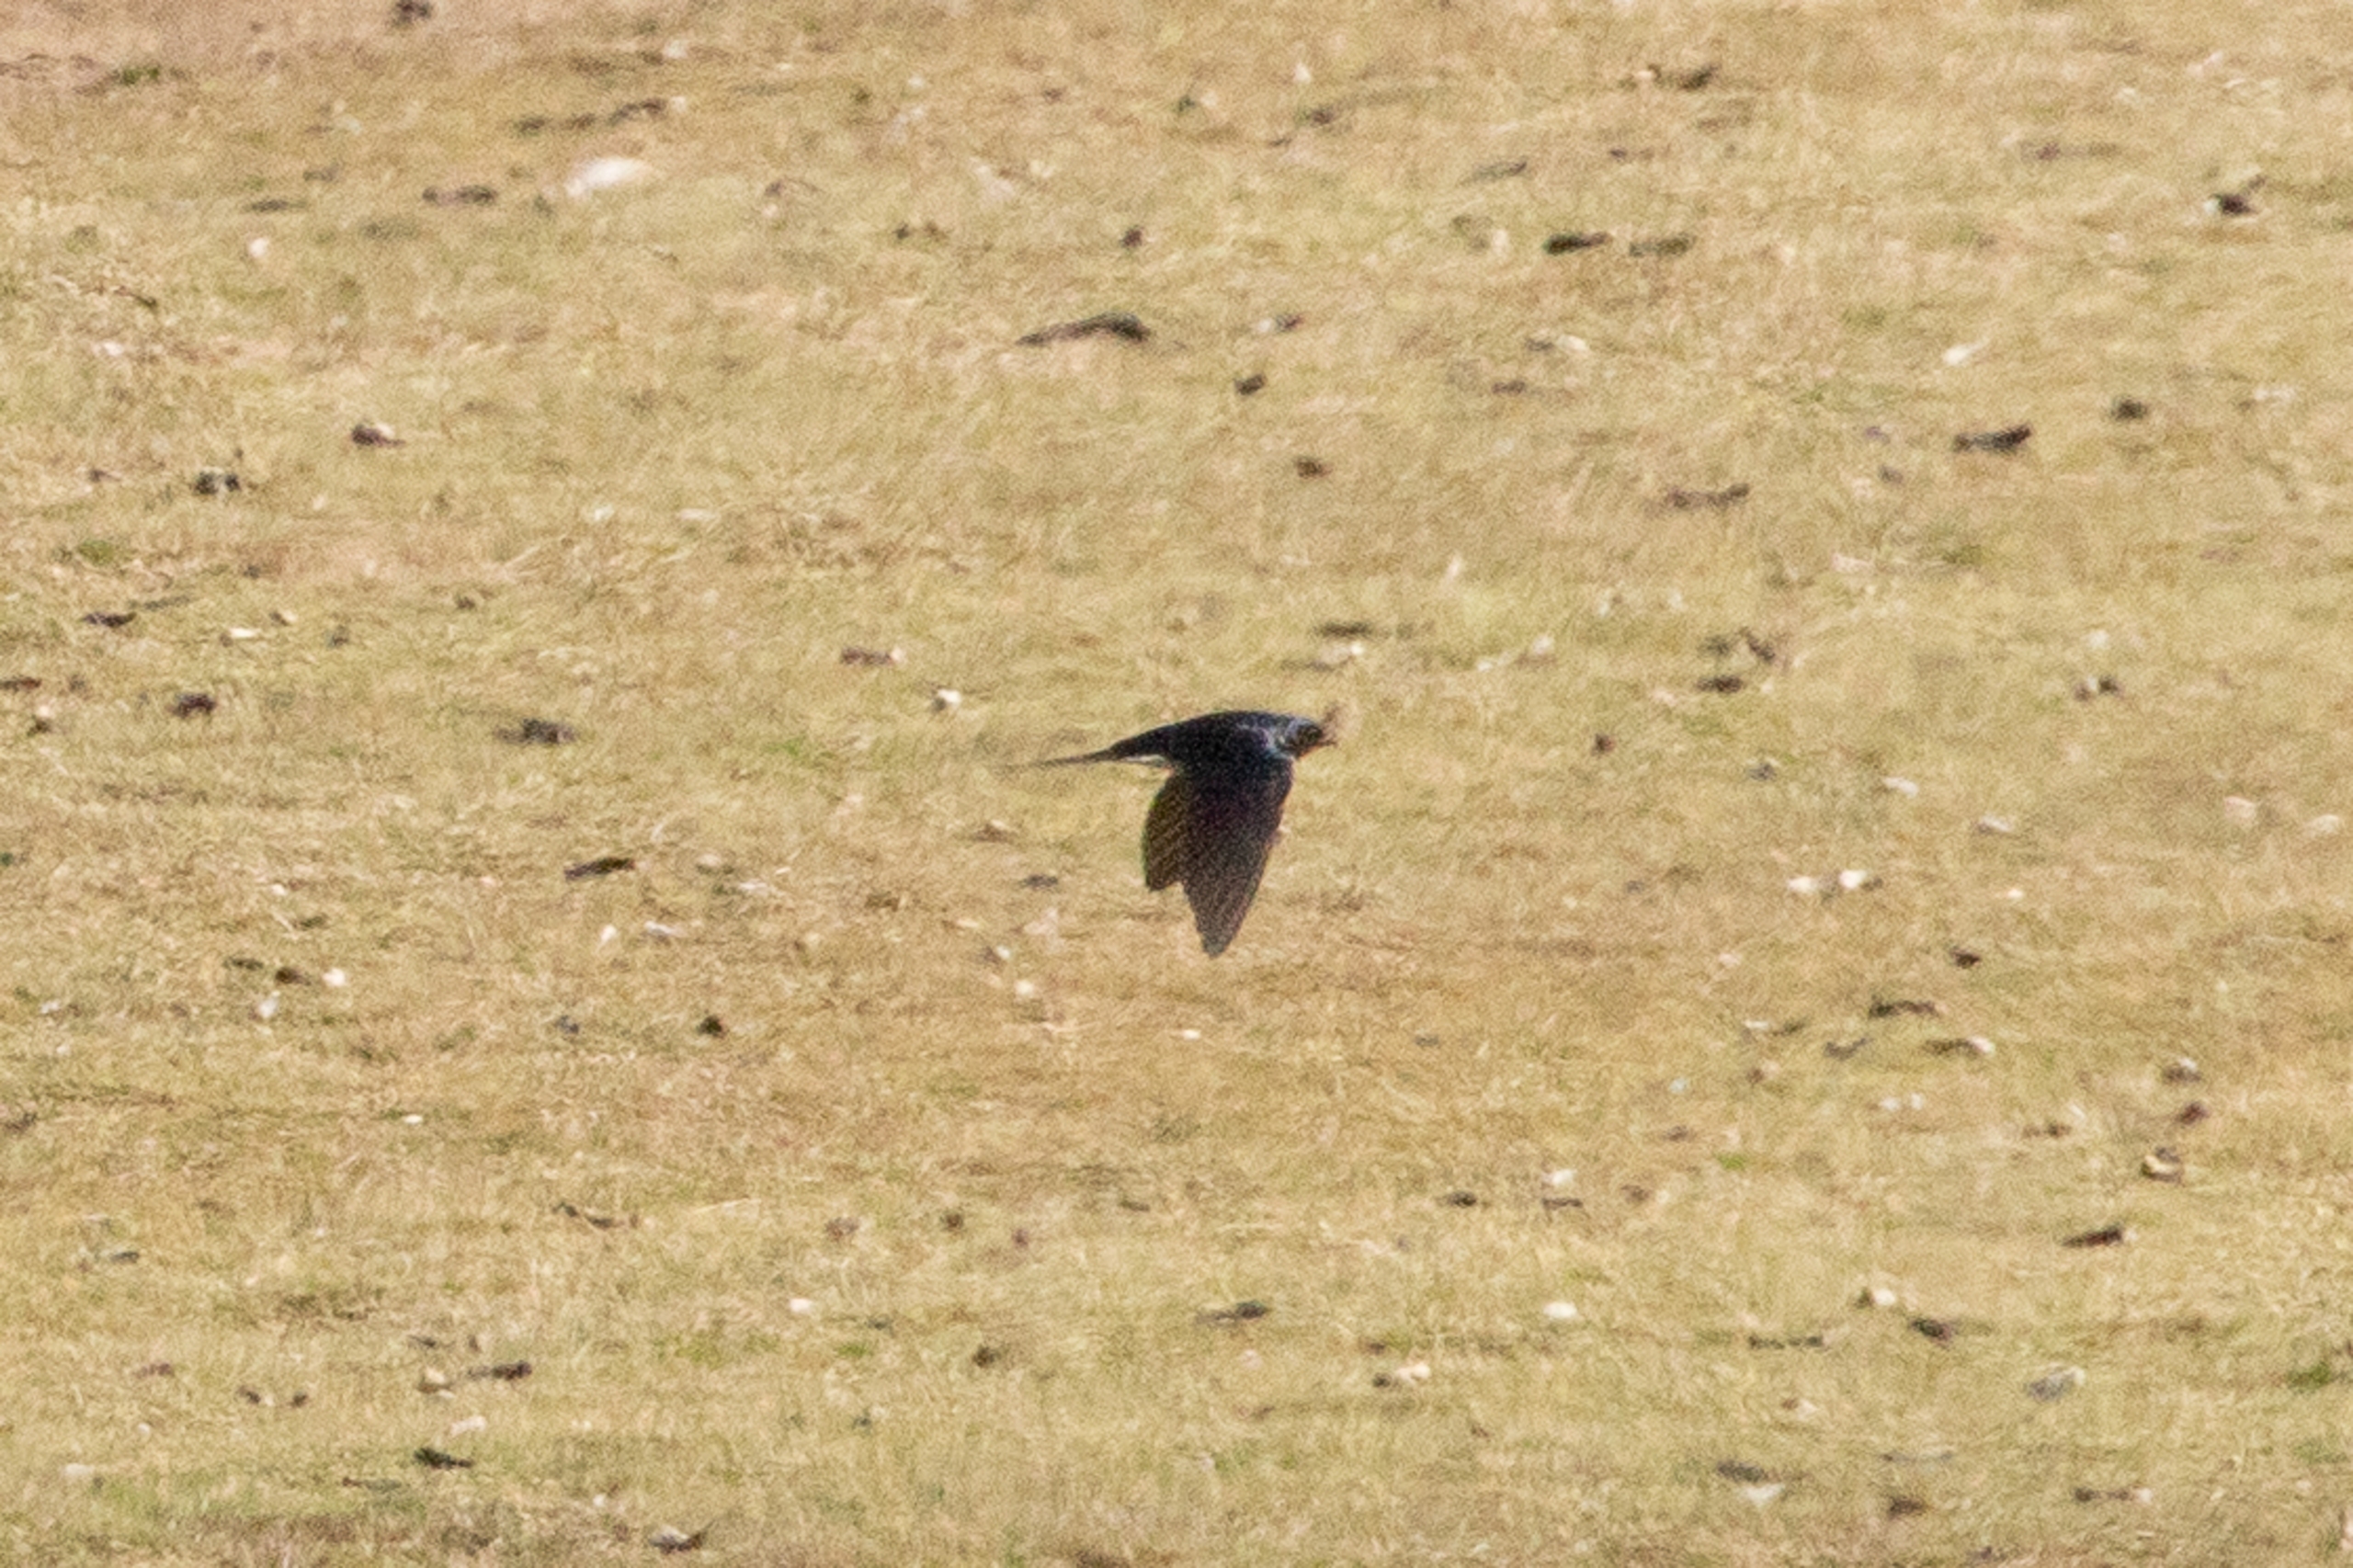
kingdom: Animalia
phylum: Chordata
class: Aves
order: Passeriformes
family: Hirundinidae
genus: Hirundo
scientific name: Hirundo rustica
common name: Landsvale
